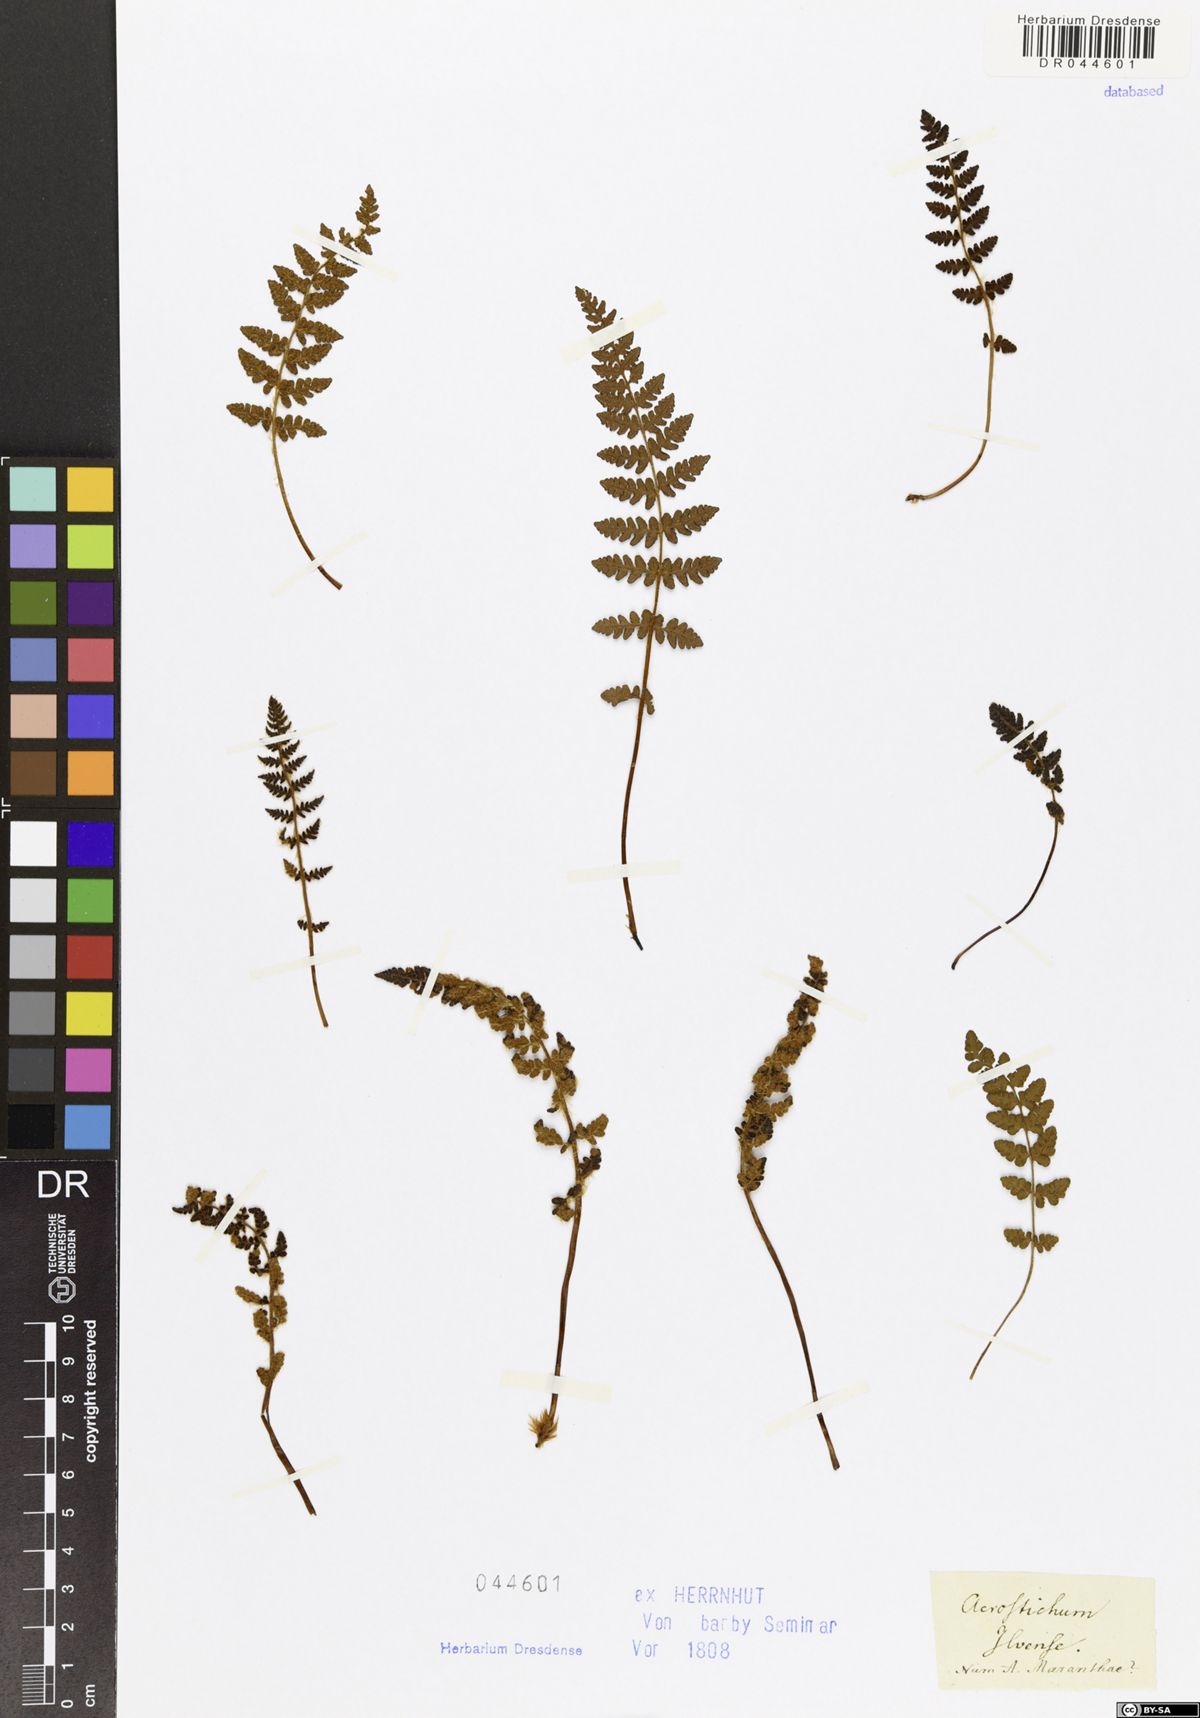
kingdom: Plantae
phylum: Tracheophyta
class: Polypodiopsida
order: Polypodiales
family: Woodsiaceae
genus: Woodsia
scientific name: Woodsia ilvensis
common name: Fragrant woodsia
